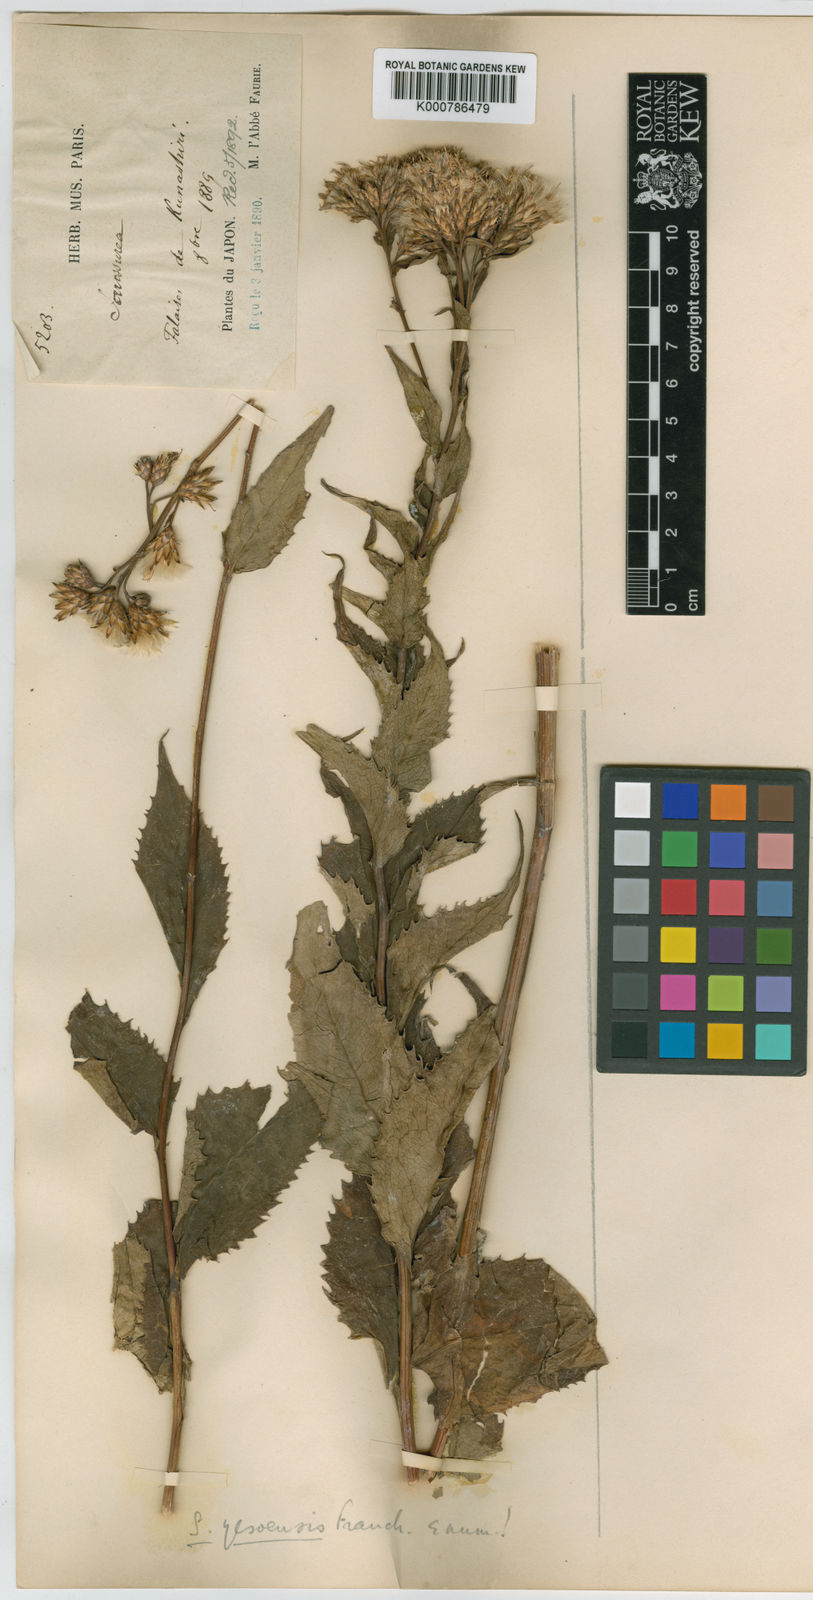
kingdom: Plantae
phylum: Tracheophyta
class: Magnoliopsida
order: Asterales
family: Asteraceae
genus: Saussurea
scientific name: Saussurea riederi
